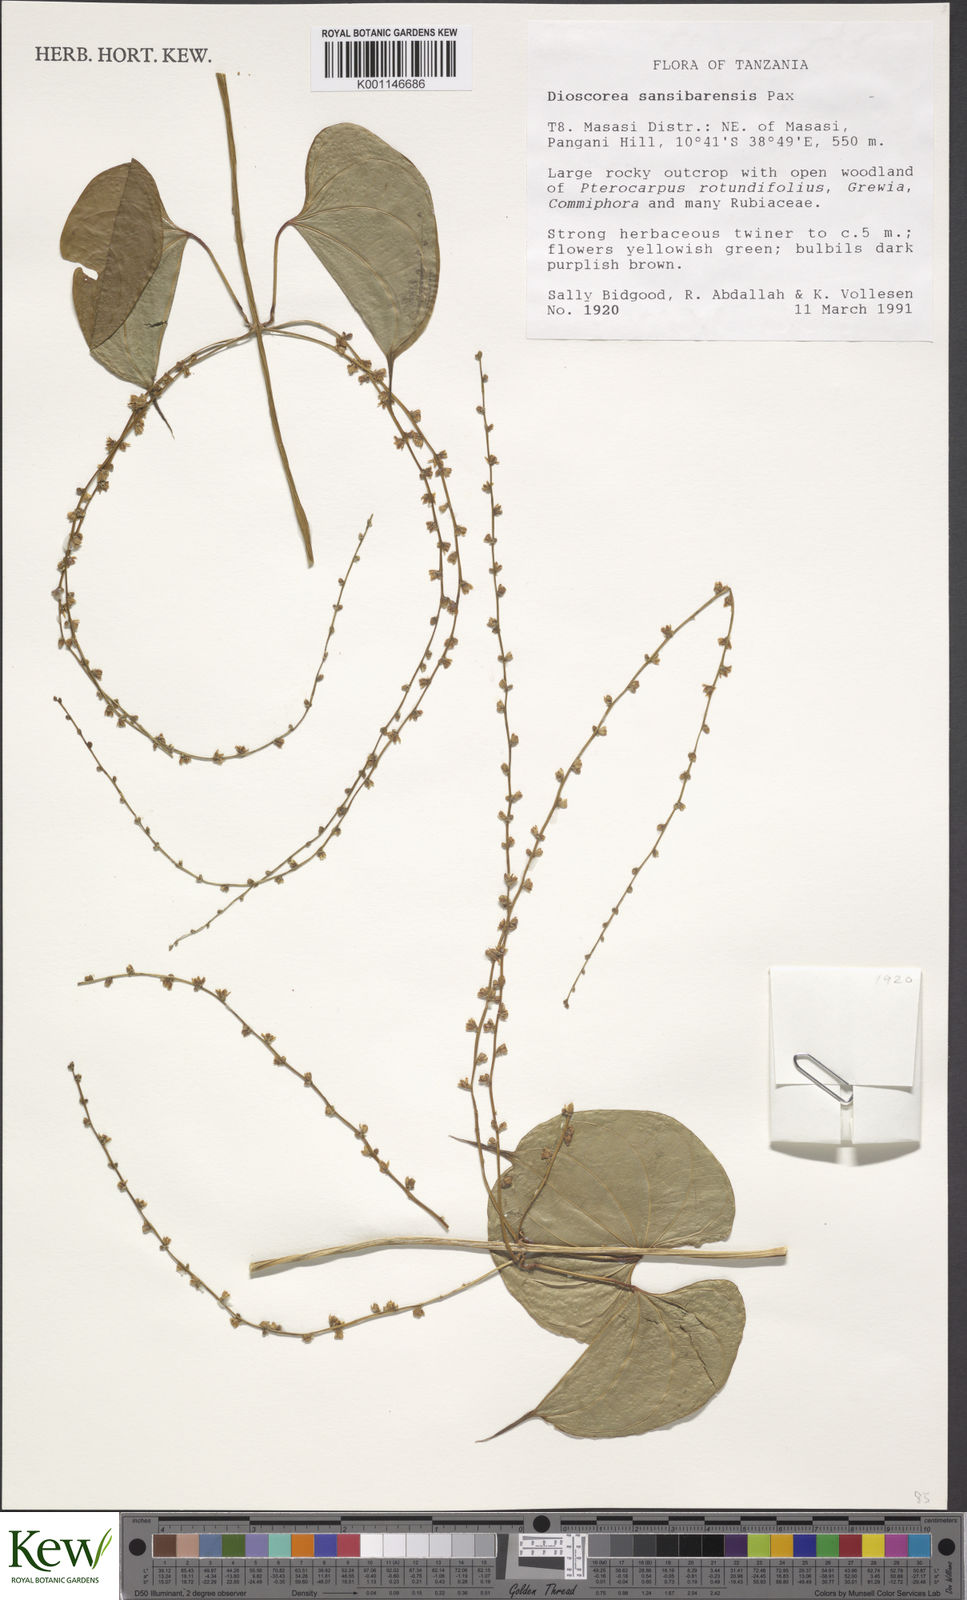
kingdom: Plantae
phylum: Tracheophyta
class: Liliopsida
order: Dioscoreales
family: Dioscoreaceae
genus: Dioscorea
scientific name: Dioscorea sansibarensis
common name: Zanzibar yam
